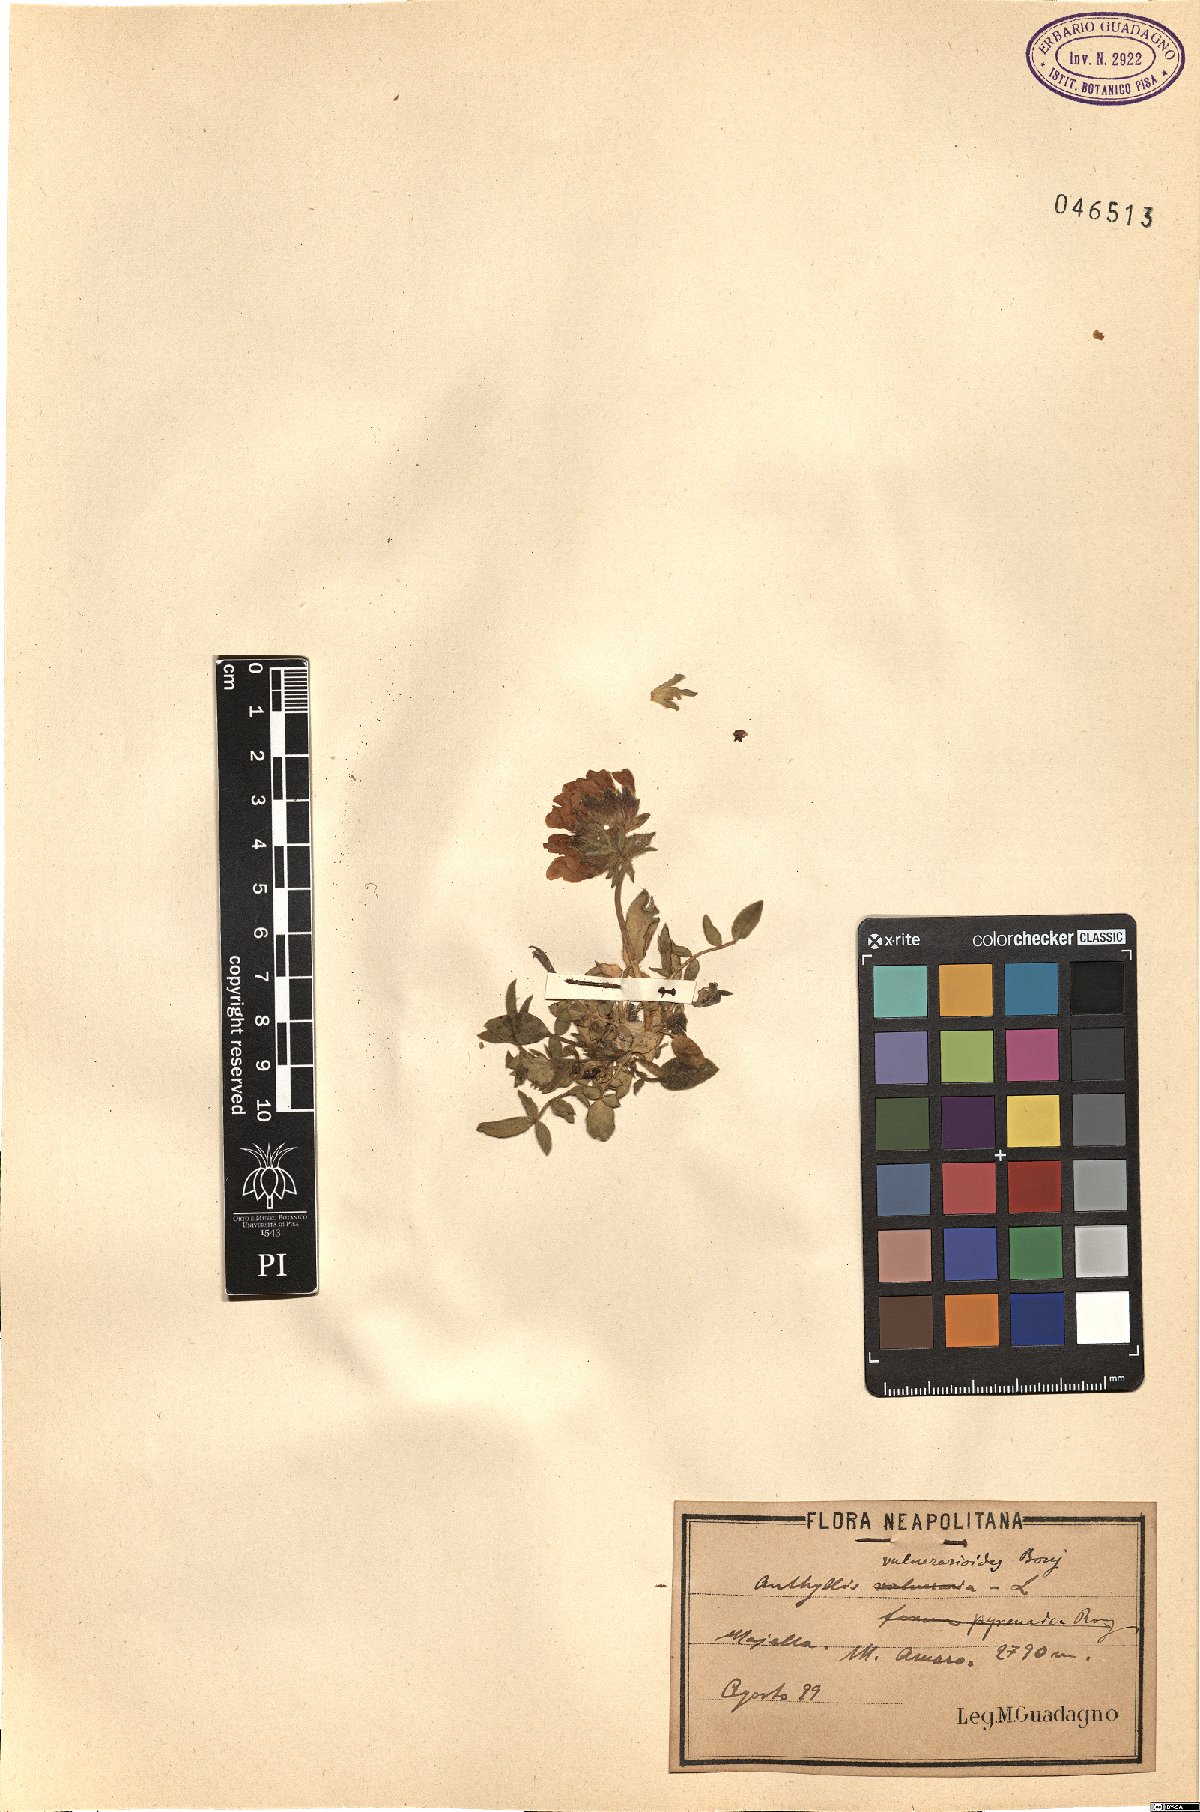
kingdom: Plantae
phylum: Tracheophyta
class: Magnoliopsida
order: Fabales
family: Fabaceae
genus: Anthyllis
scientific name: Anthyllis vulneraria
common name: Kidney vetch
